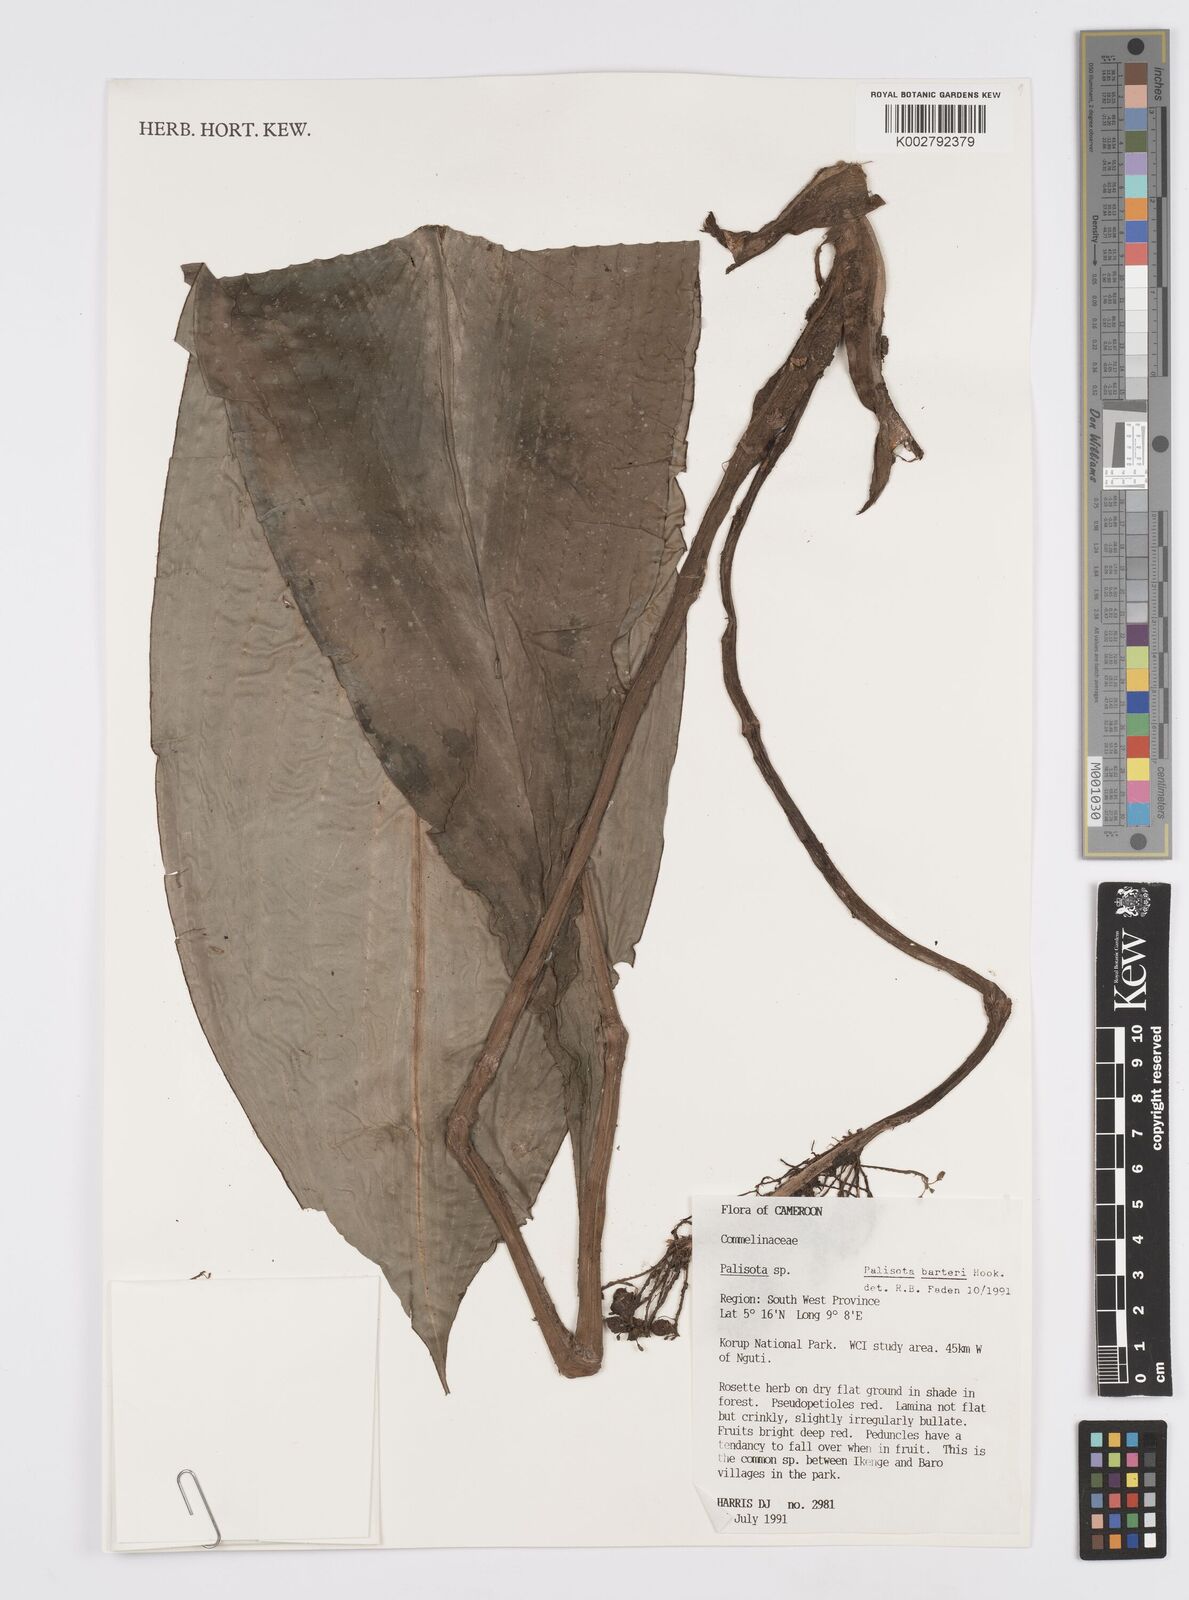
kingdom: Plantae
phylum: Tracheophyta
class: Liliopsida
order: Commelinales
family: Commelinaceae
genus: Palisota
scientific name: Palisota barteri
